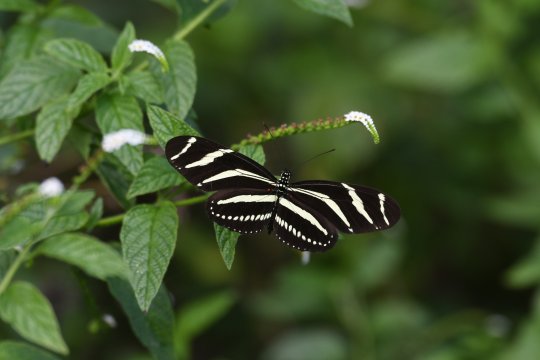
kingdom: Animalia
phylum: Arthropoda
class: Insecta
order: Lepidoptera
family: Nymphalidae
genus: Heliconius
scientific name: Heliconius charithonia
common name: Zebra Longwing
